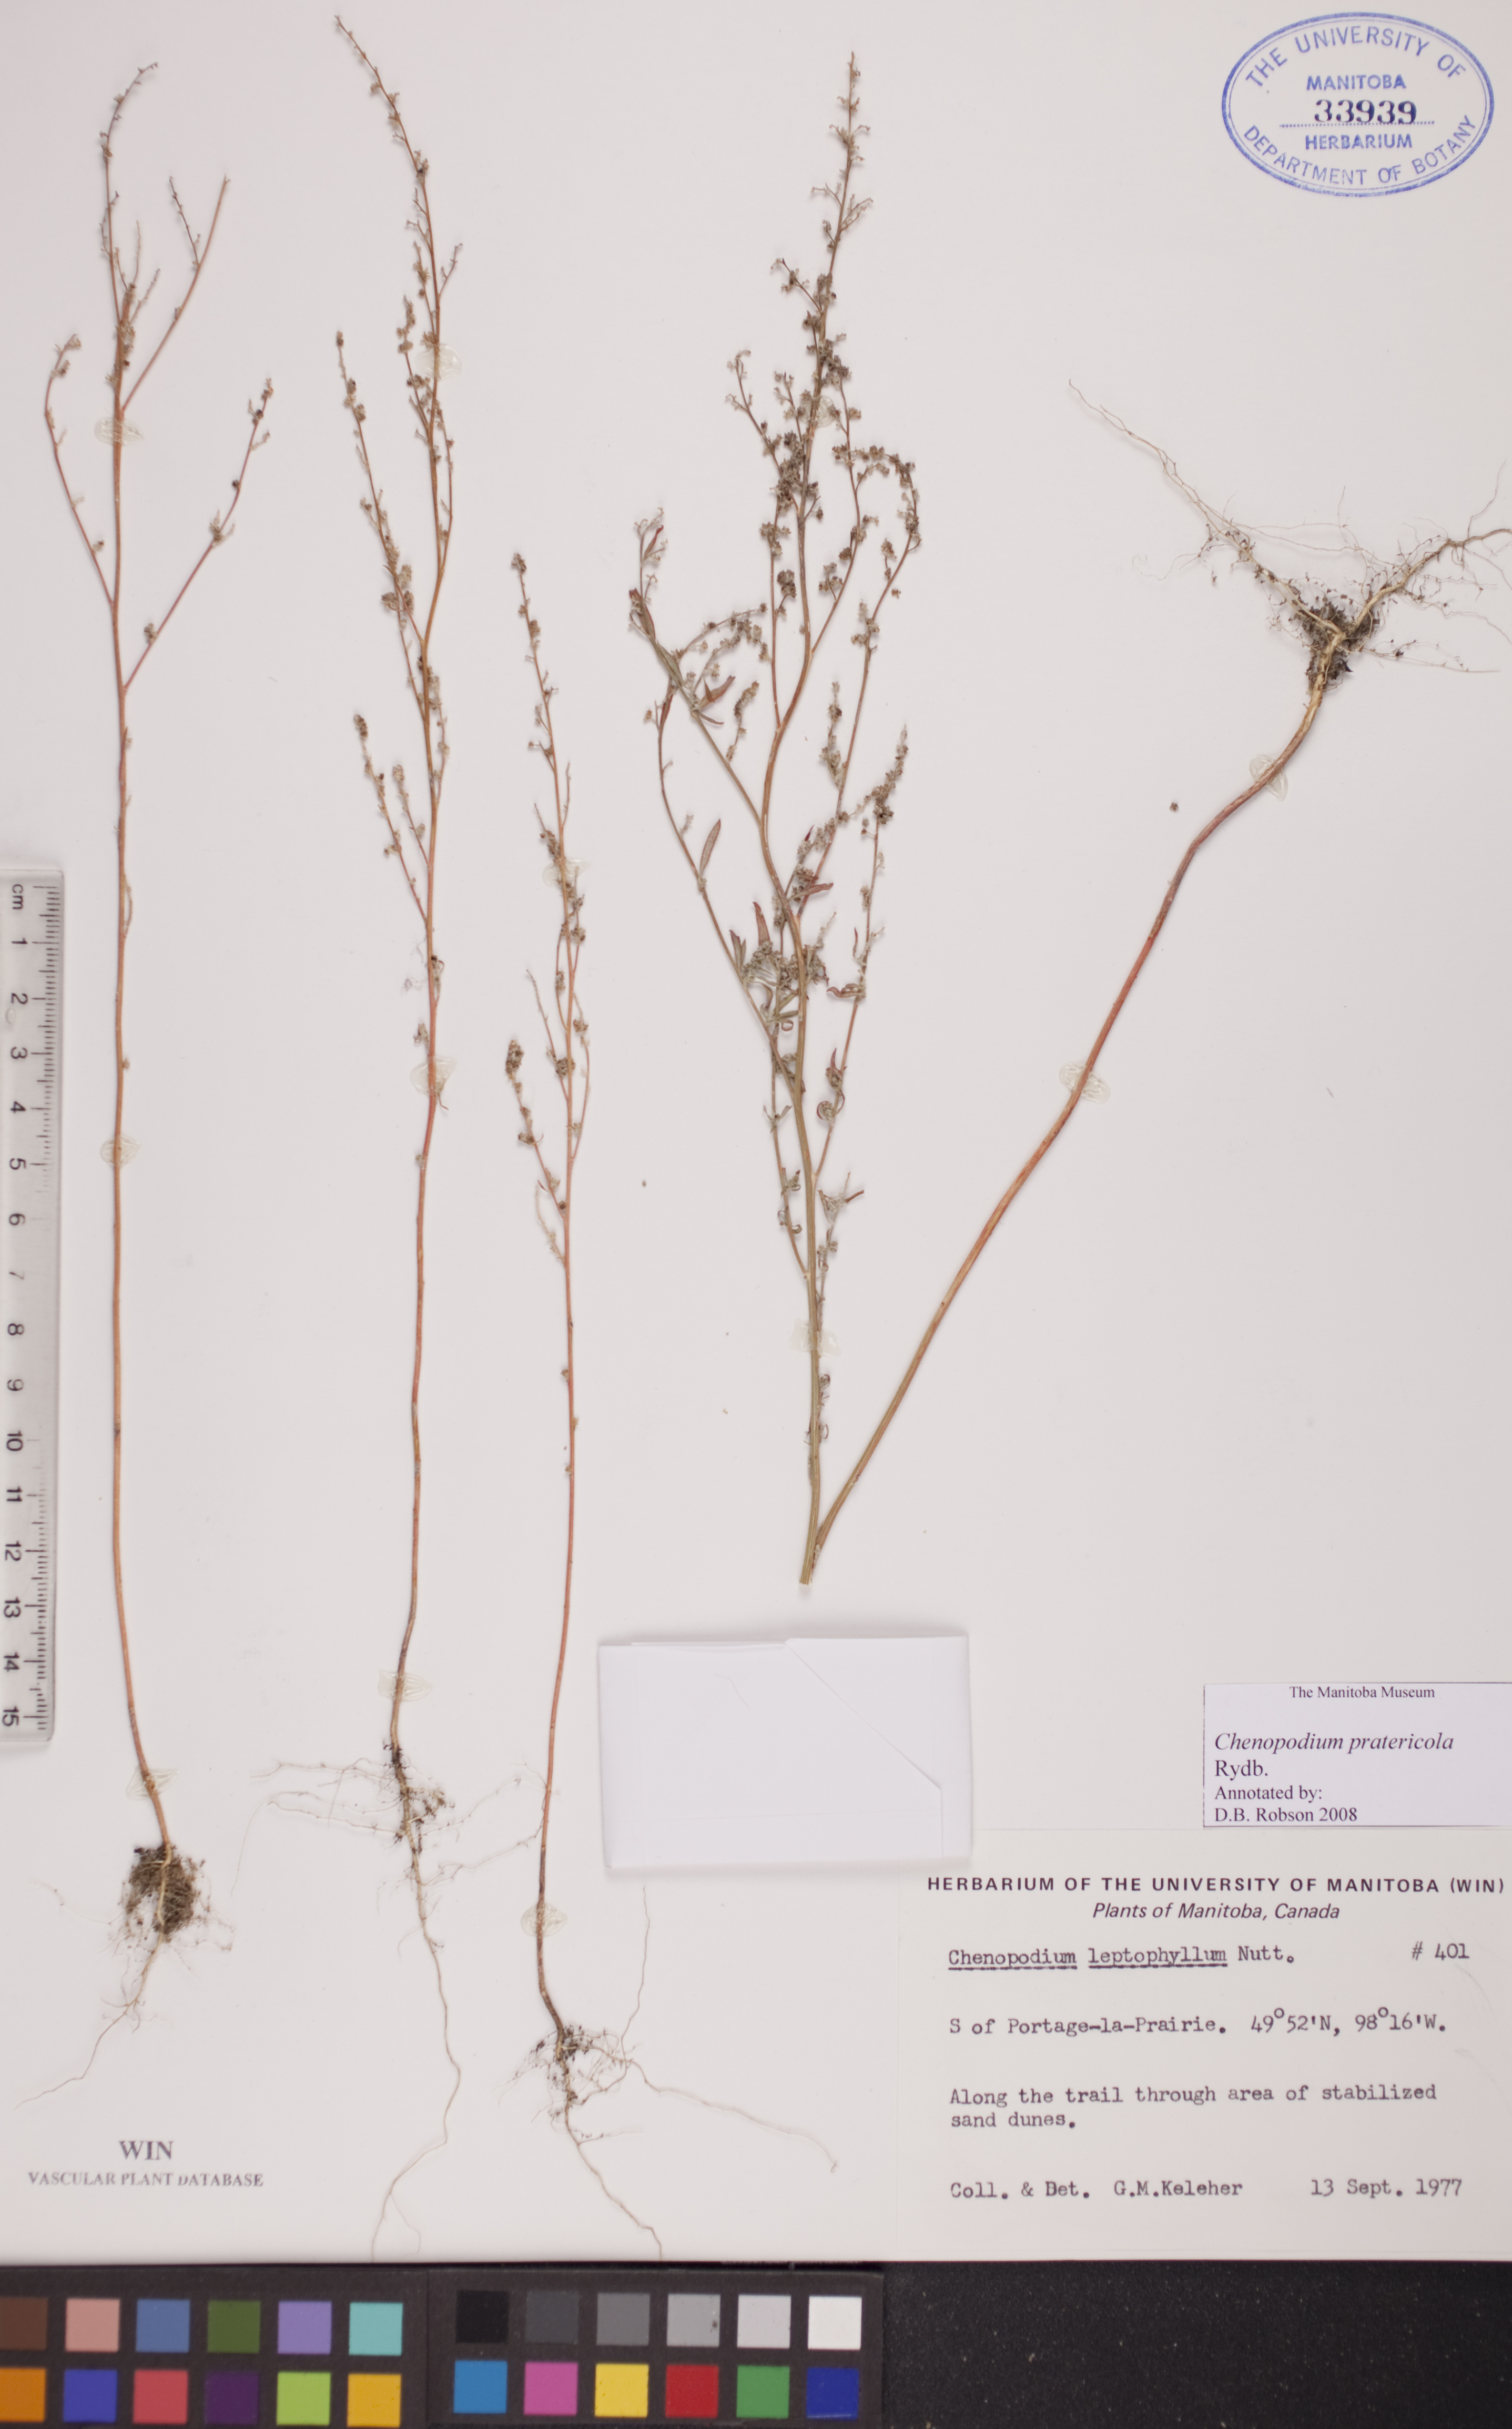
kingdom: Plantae
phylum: Tracheophyta
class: Magnoliopsida
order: Caryophyllales
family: Amaranthaceae
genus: Chenopodium
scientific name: Chenopodium pratericola
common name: Desert goosefoot
